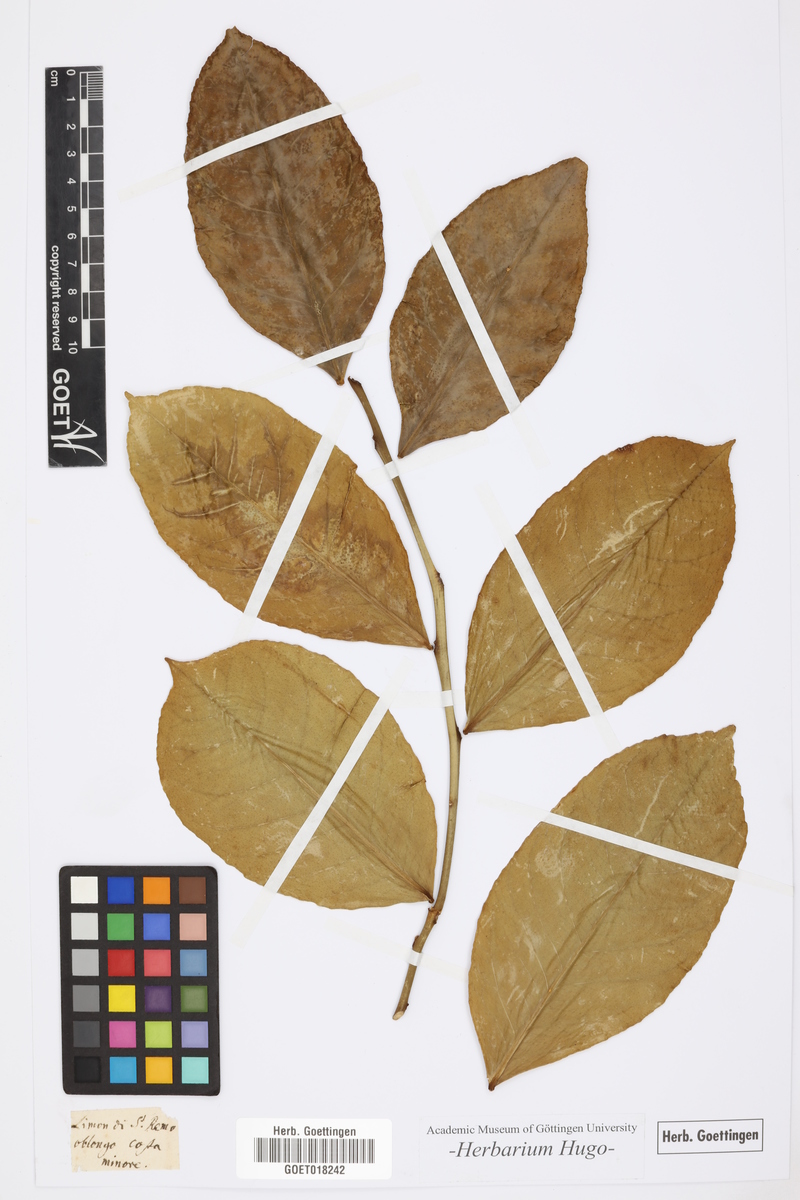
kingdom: Plantae
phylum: Tracheophyta
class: Magnoliopsida
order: Sapindales
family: Rutaceae
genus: Citrus
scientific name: Citrus
